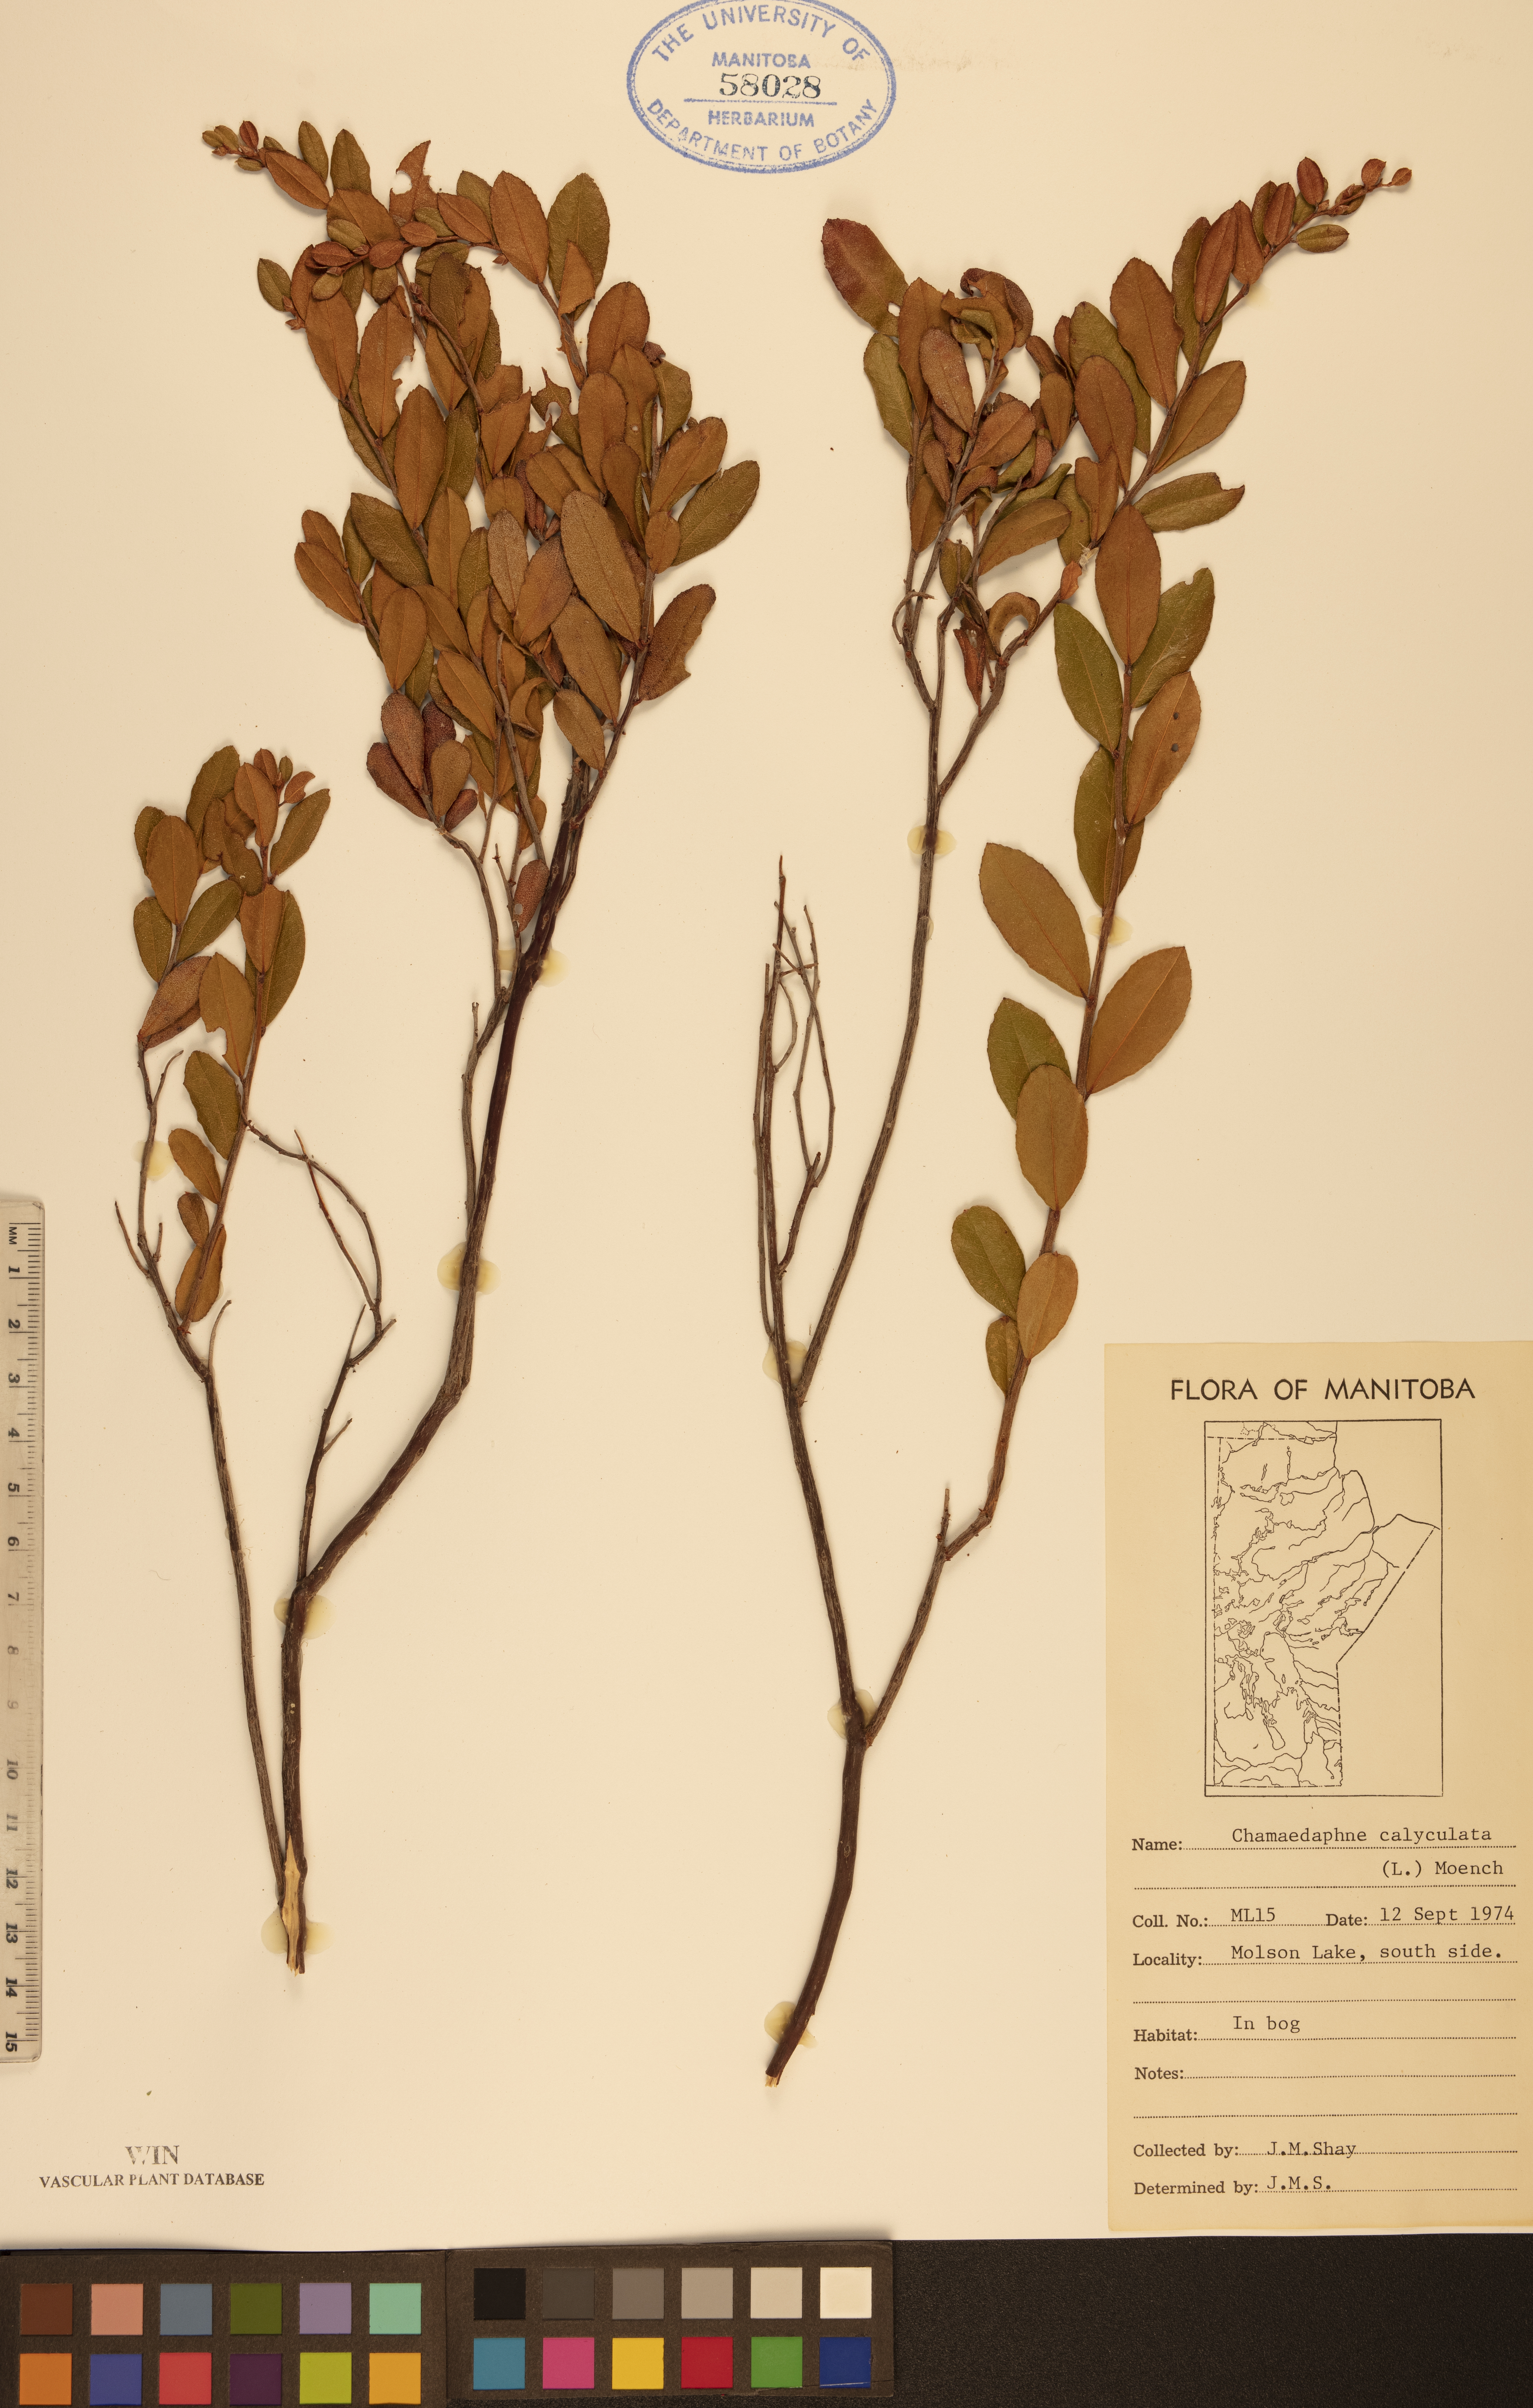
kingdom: Plantae
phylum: Tracheophyta
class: Magnoliopsida
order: Ericales
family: Ericaceae
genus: Chamaedaphne
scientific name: Chamaedaphne calyculata
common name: Leatherleaf
